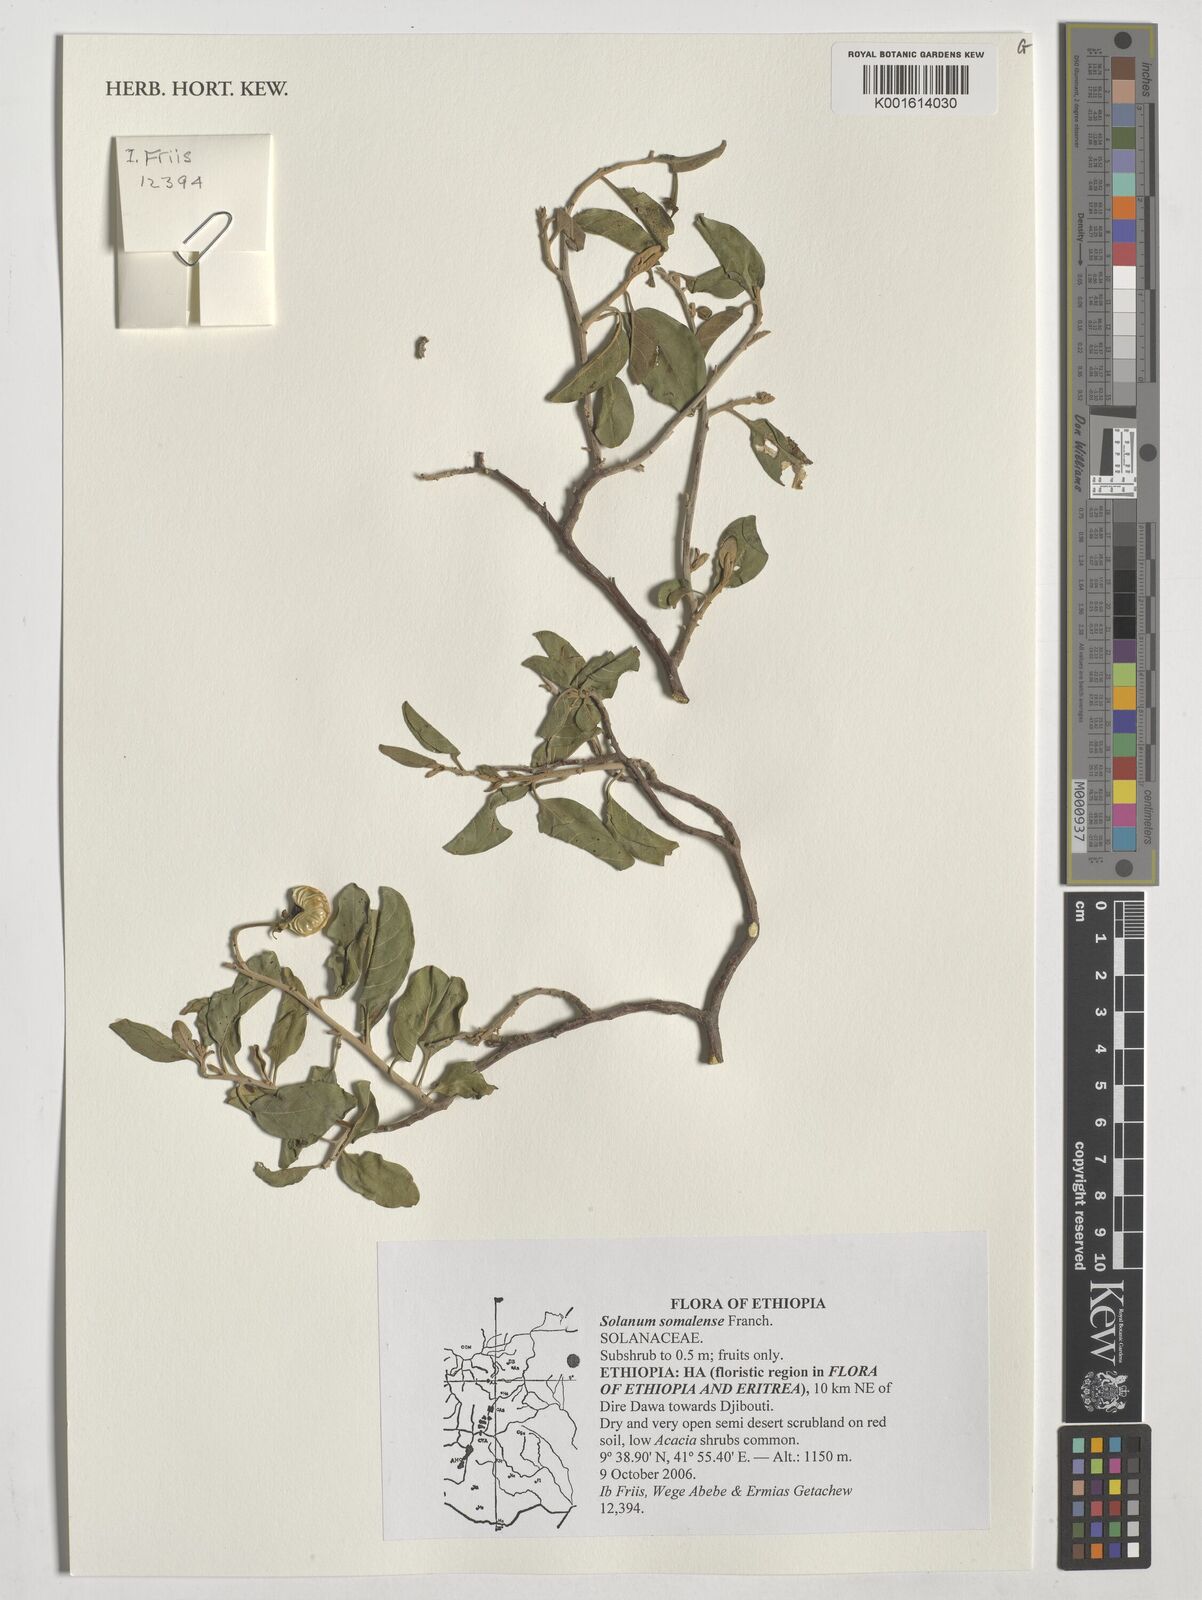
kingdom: Plantae
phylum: Tracheophyta
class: Magnoliopsida
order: Solanales
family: Solanaceae
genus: Solanum
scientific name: Solanum somalense
